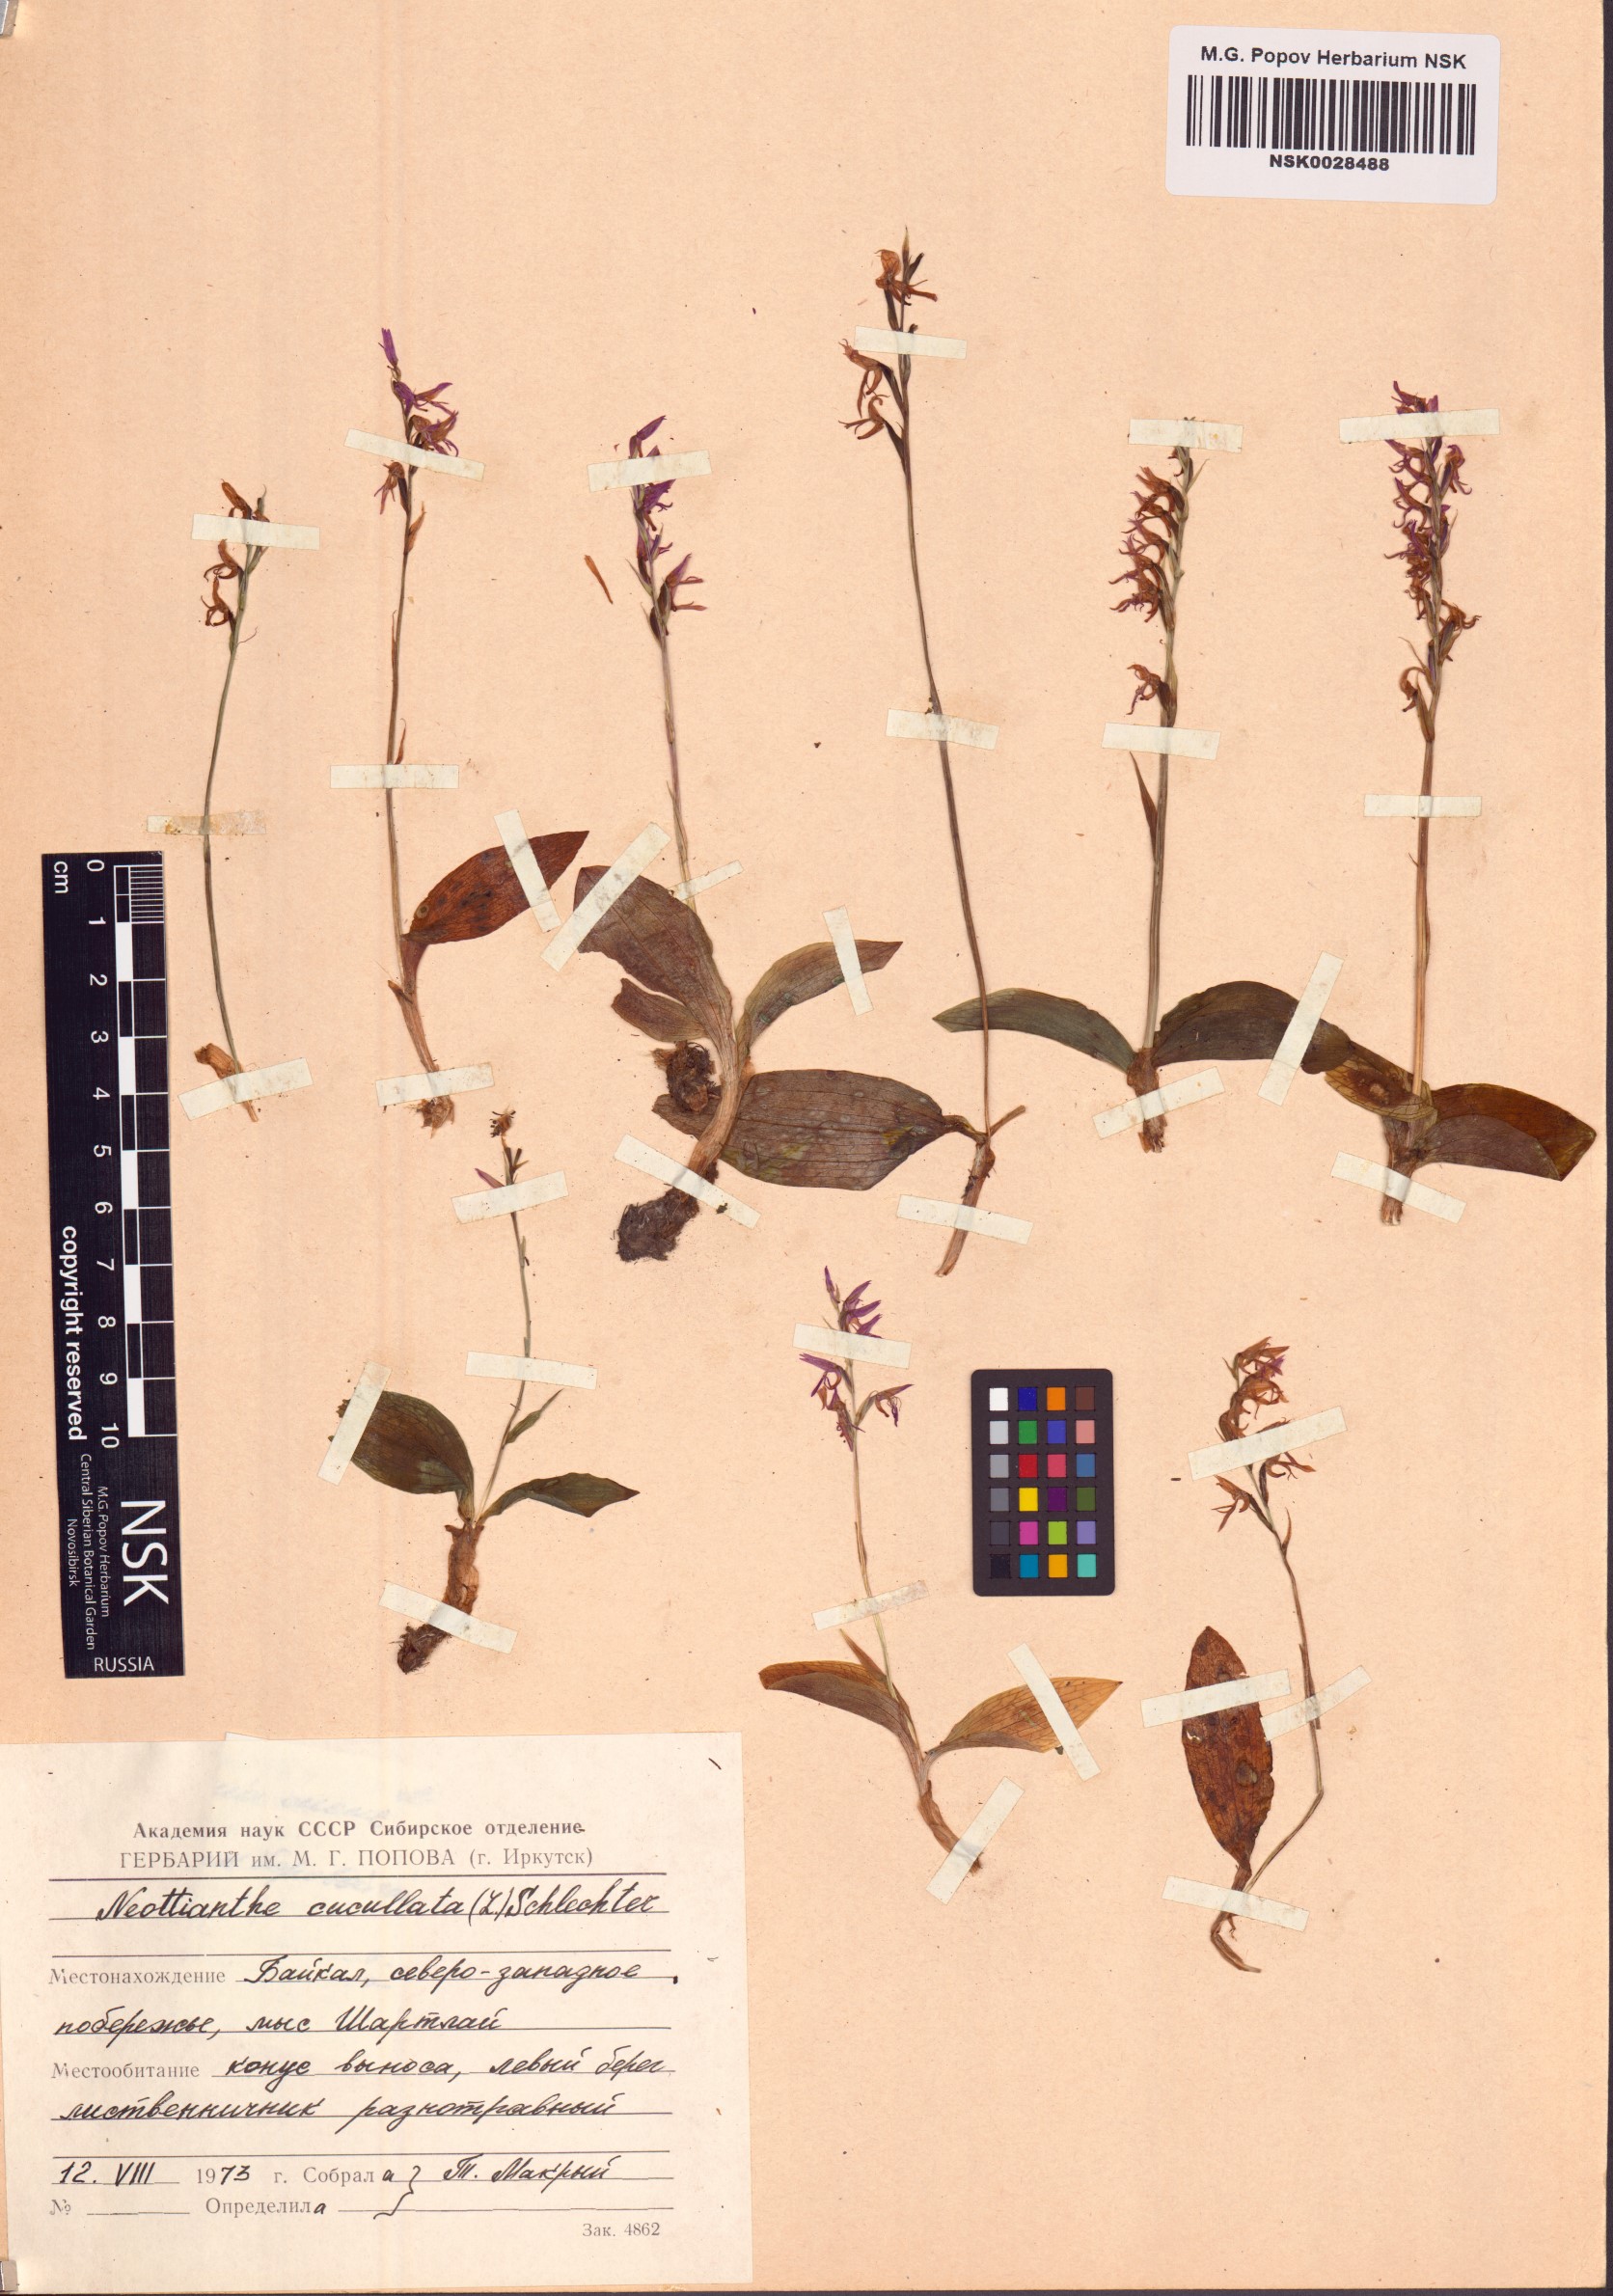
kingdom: Plantae
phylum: Tracheophyta
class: Liliopsida
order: Asparagales
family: Orchidaceae
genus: Hemipilia
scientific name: Hemipilia cucullata
